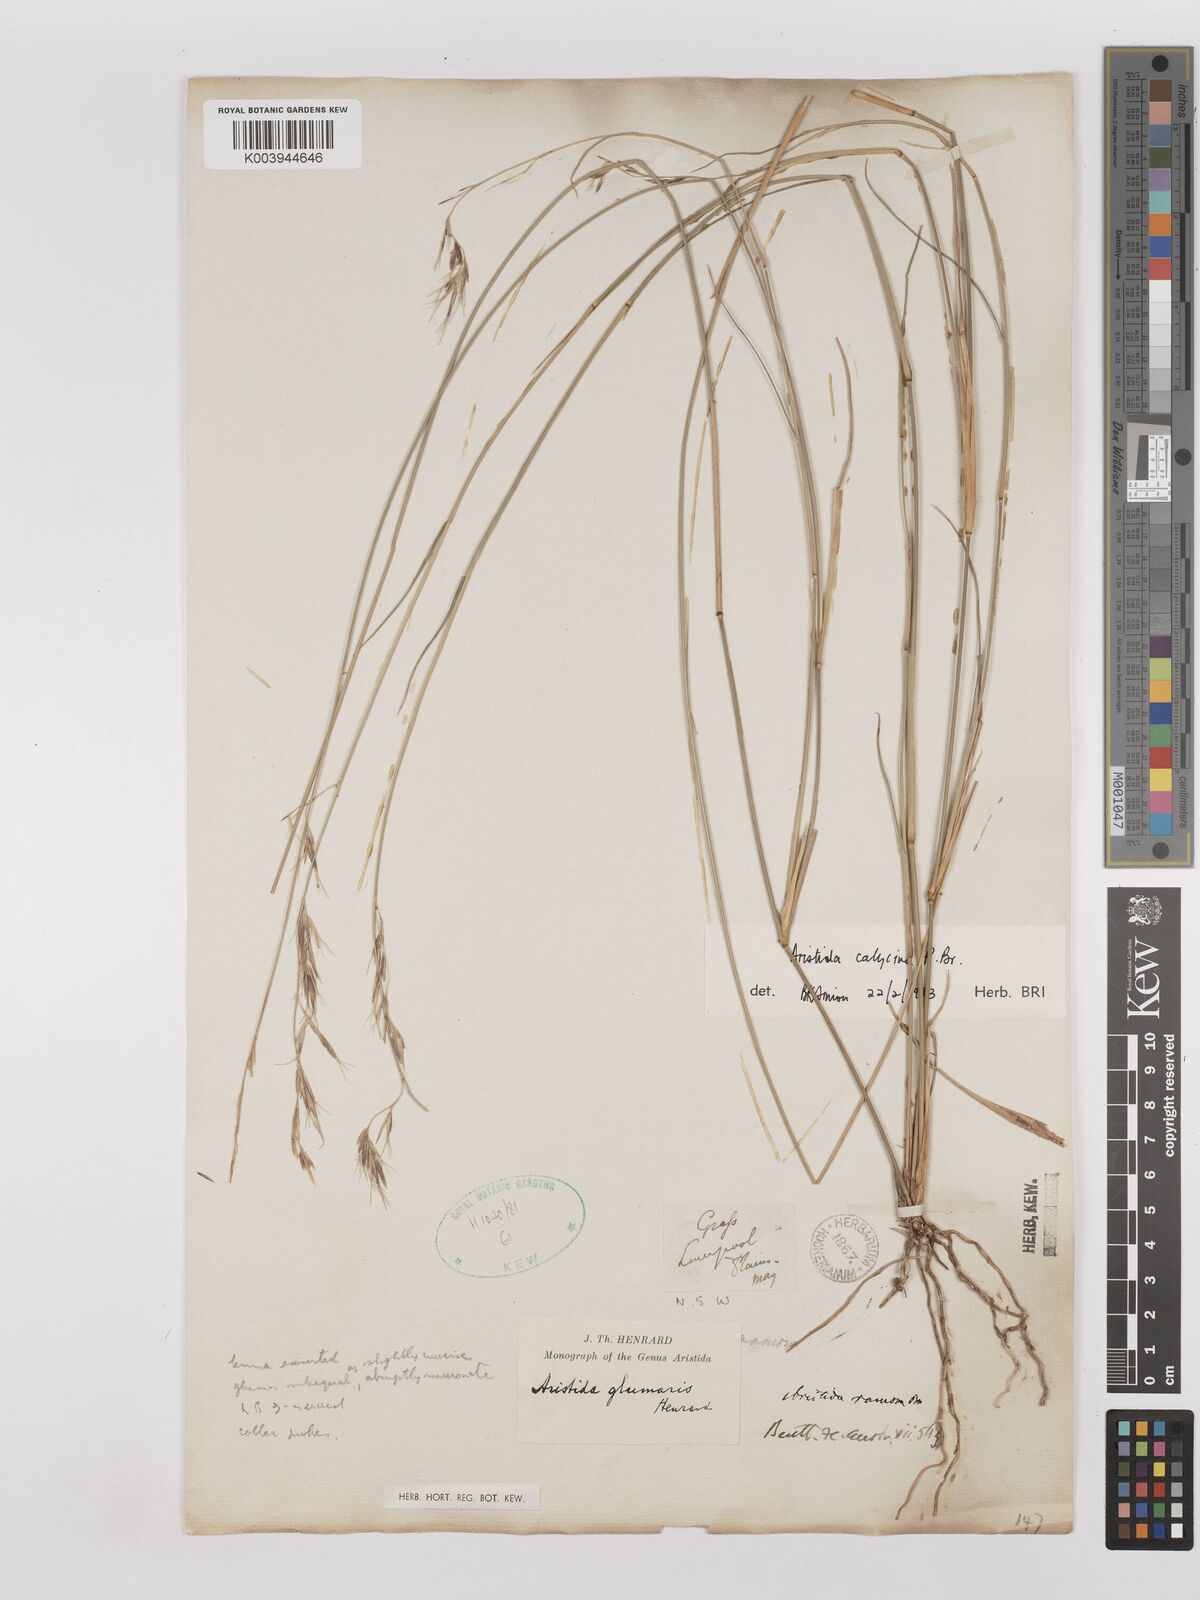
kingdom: Plantae
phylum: Tracheophyta
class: Liliopsida
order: Poales
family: Poaceae
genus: Aristida
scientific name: Aristida calycina
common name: Dark wire grass
